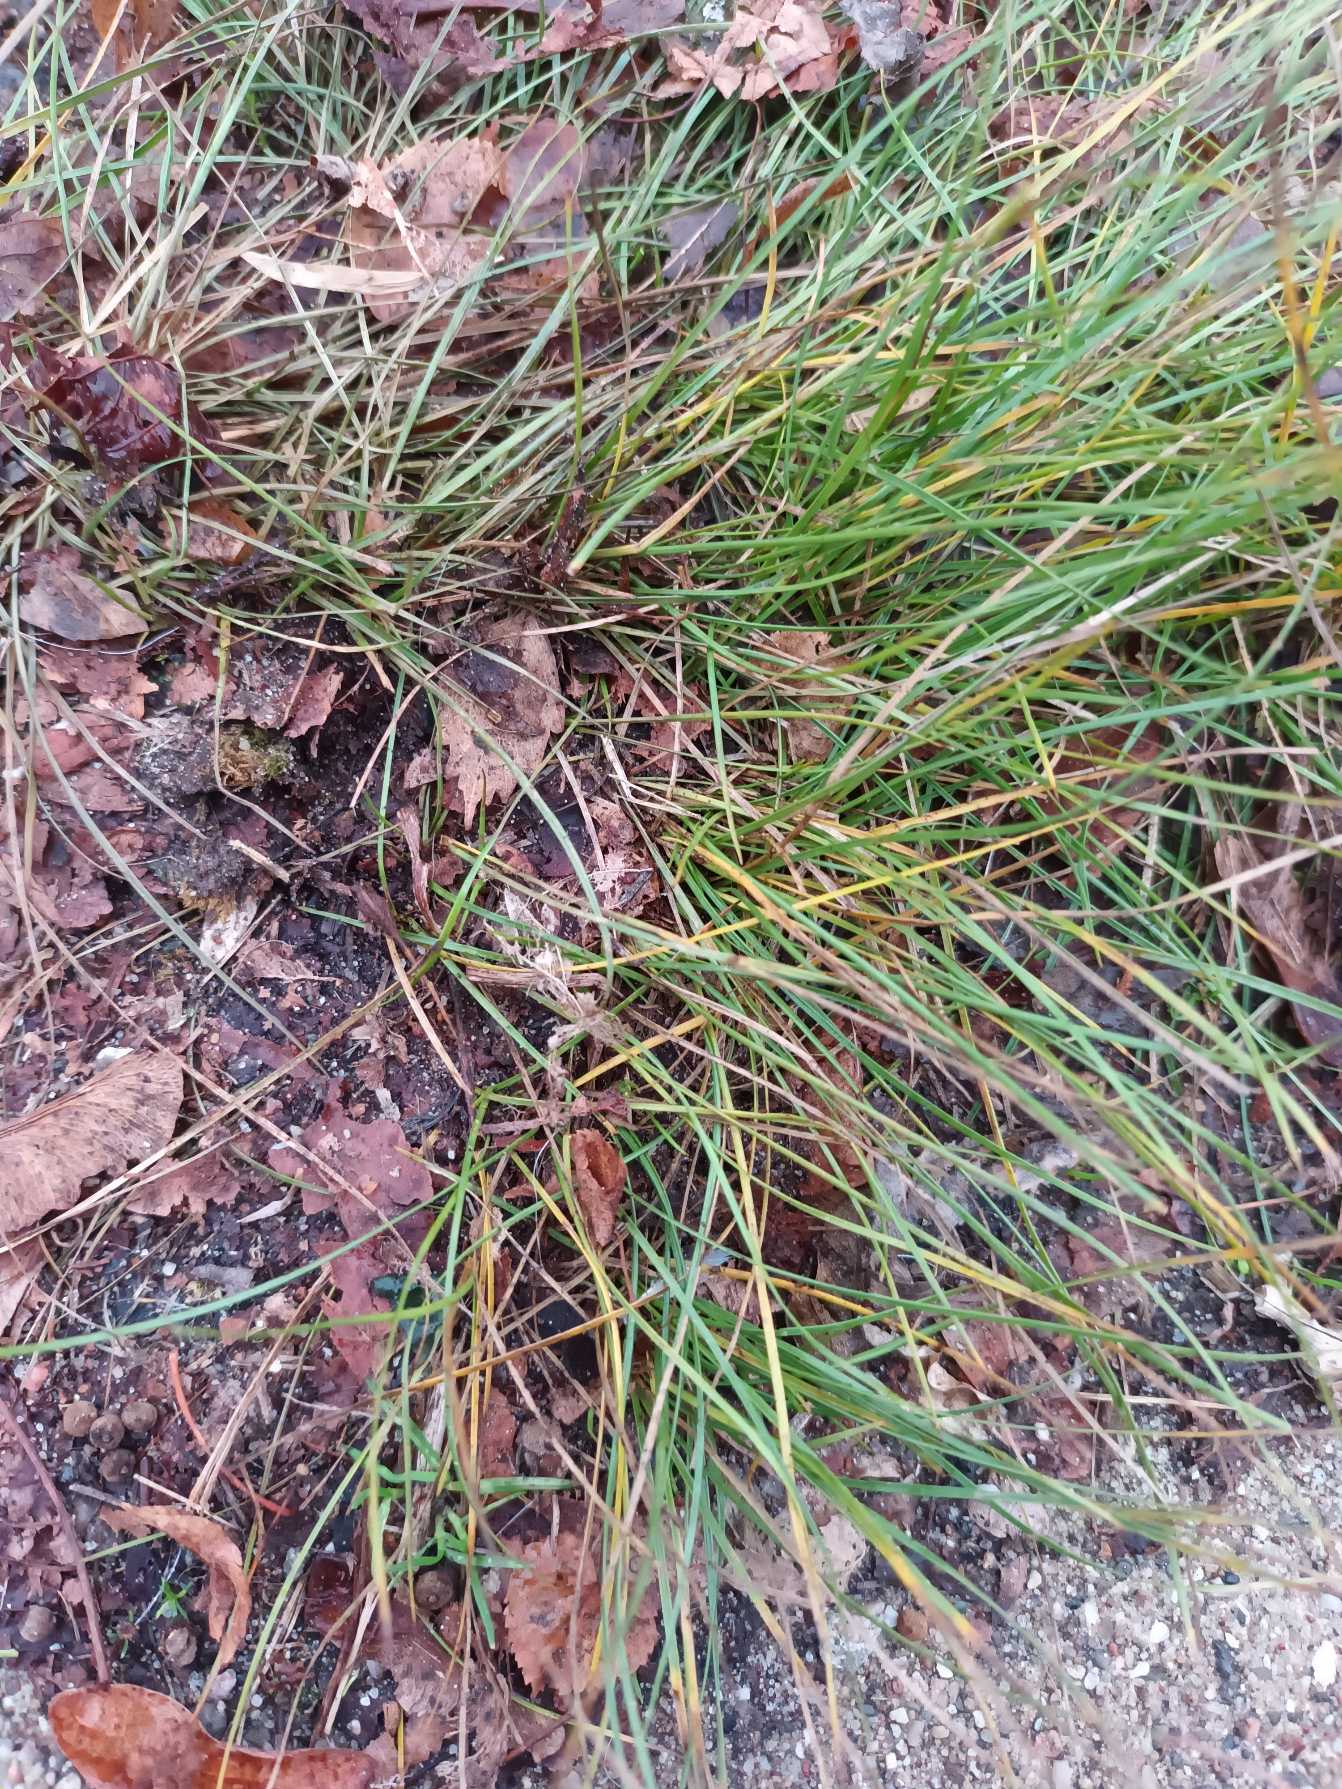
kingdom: Plantae
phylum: Tracheophyta
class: Liliopsida
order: Poales
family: Poaceae
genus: Festuca
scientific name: Festuca trachyphylla
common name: Bakke-svingel
